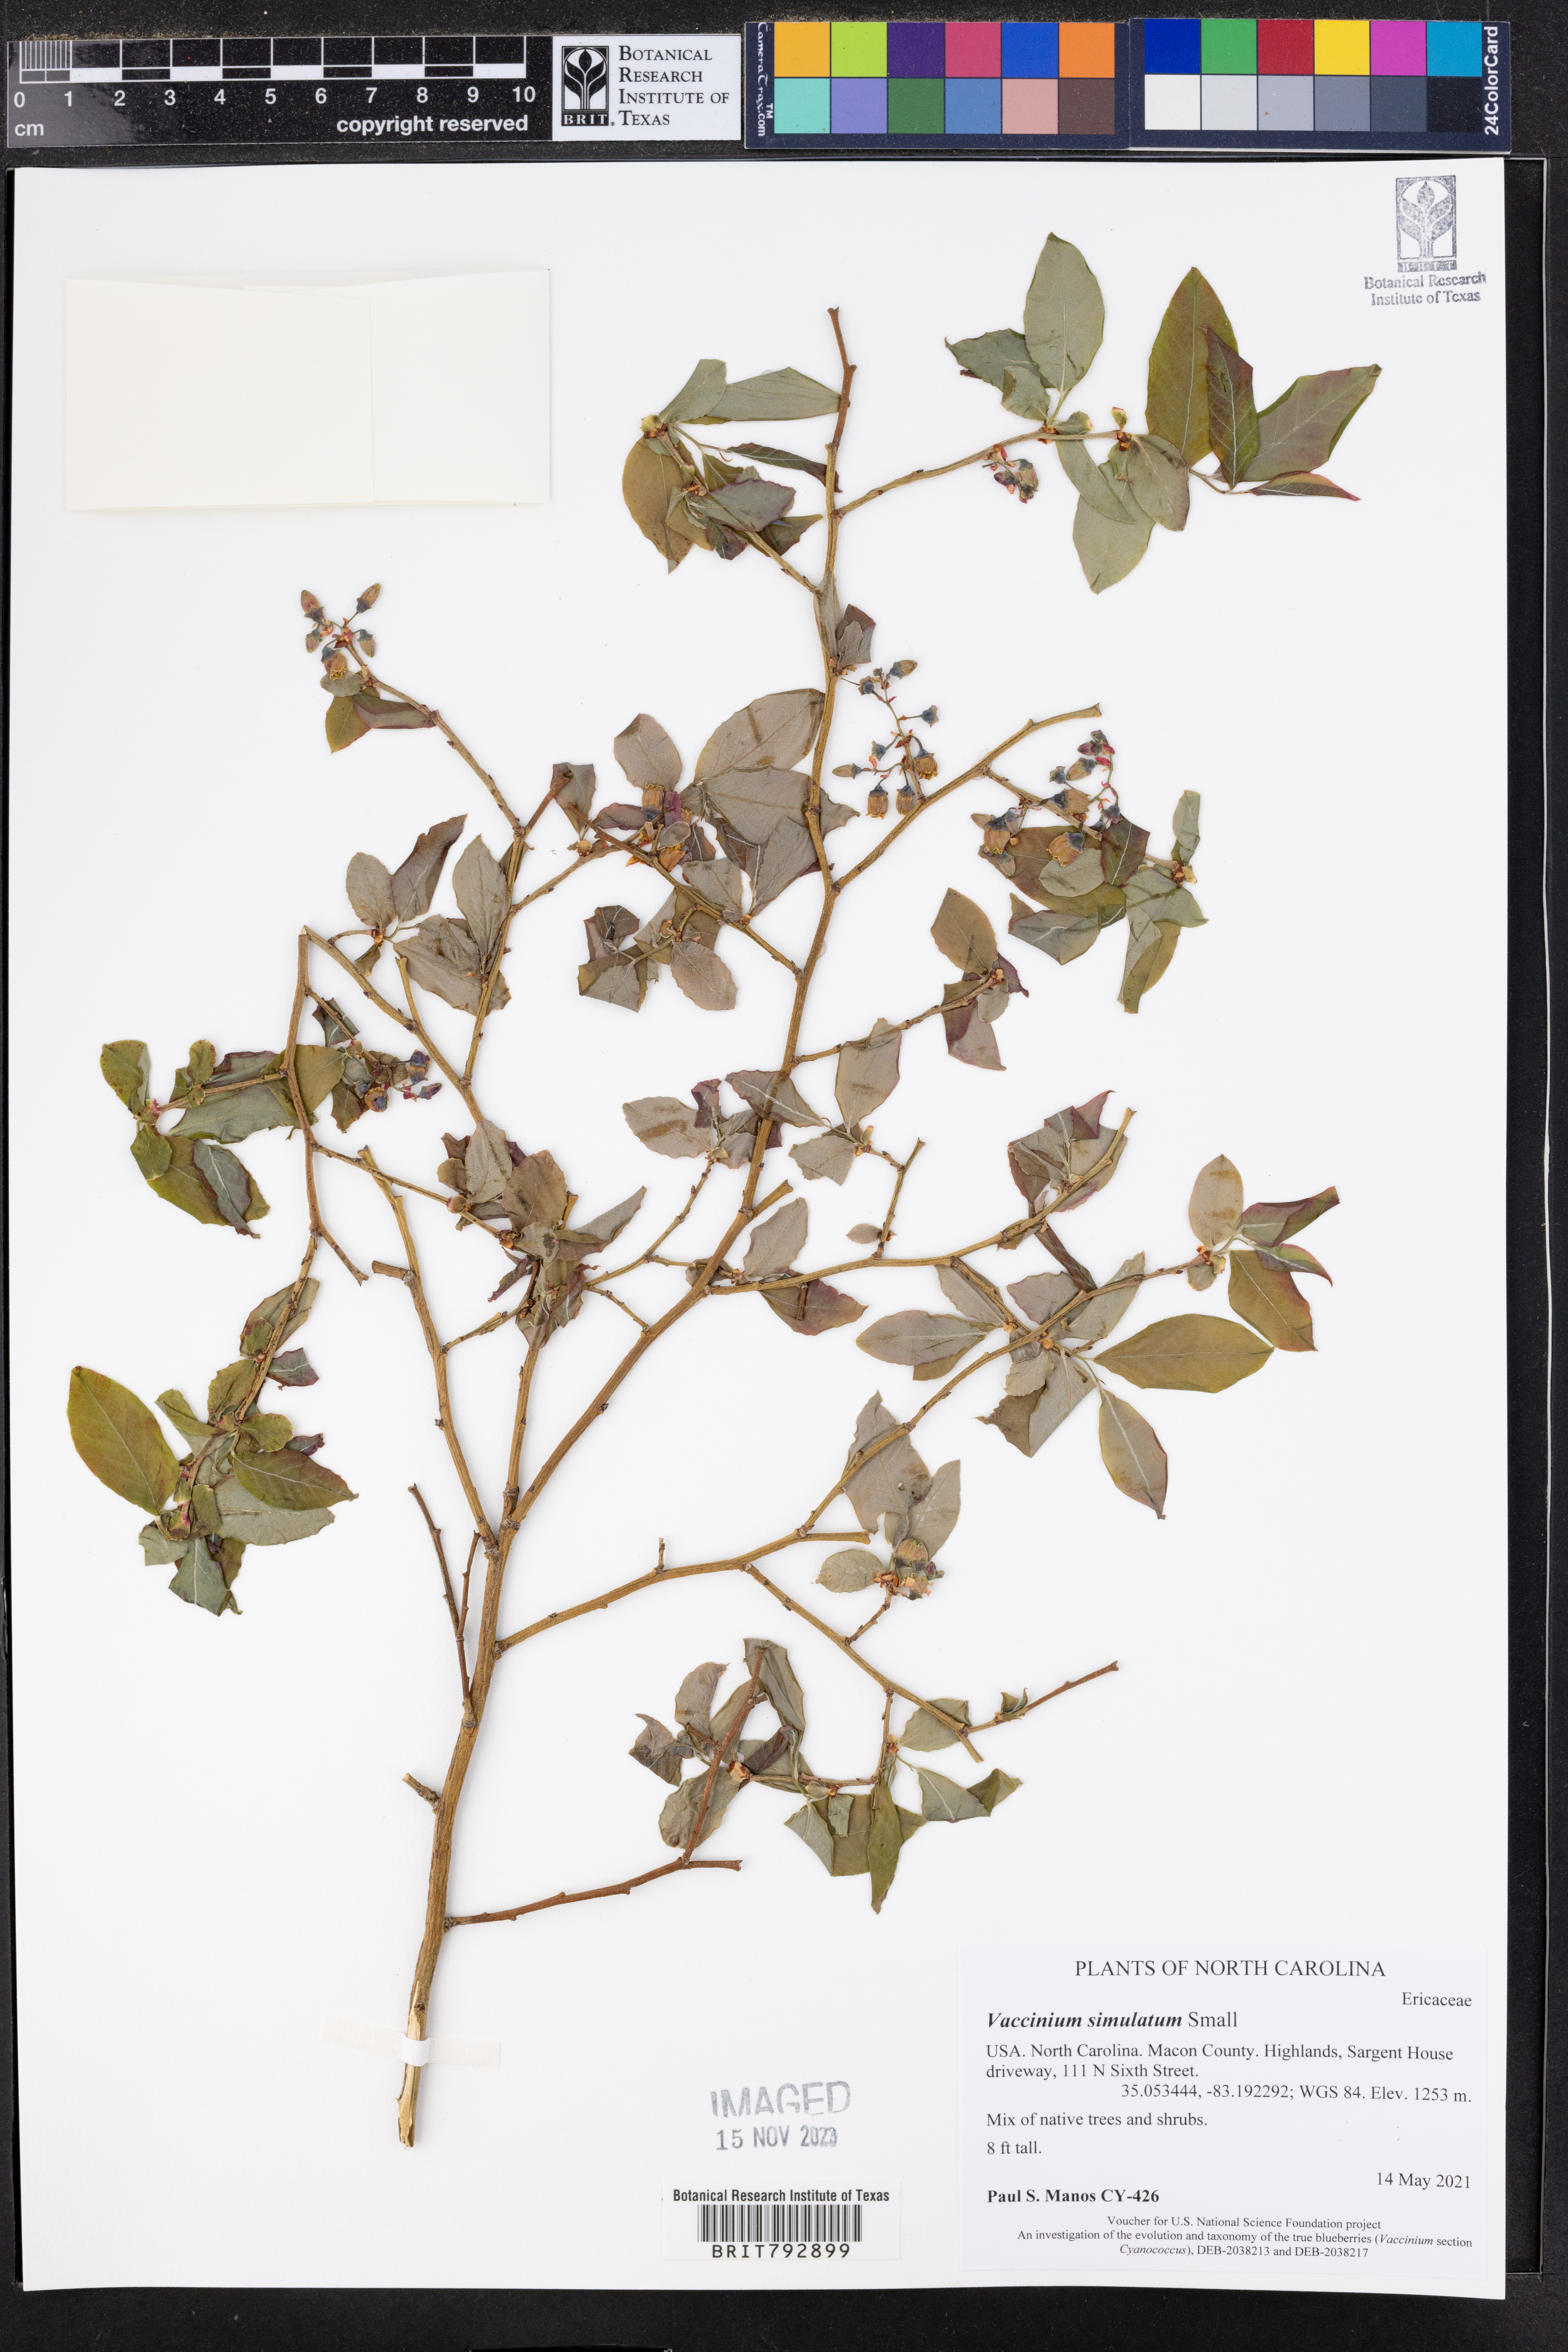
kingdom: Plantae
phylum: Tracheophyta
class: Magnoliopsida
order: Ericales
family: Ericaceae
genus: Vaccinium
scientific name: Vaccinium corymbosum
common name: Blueberry
